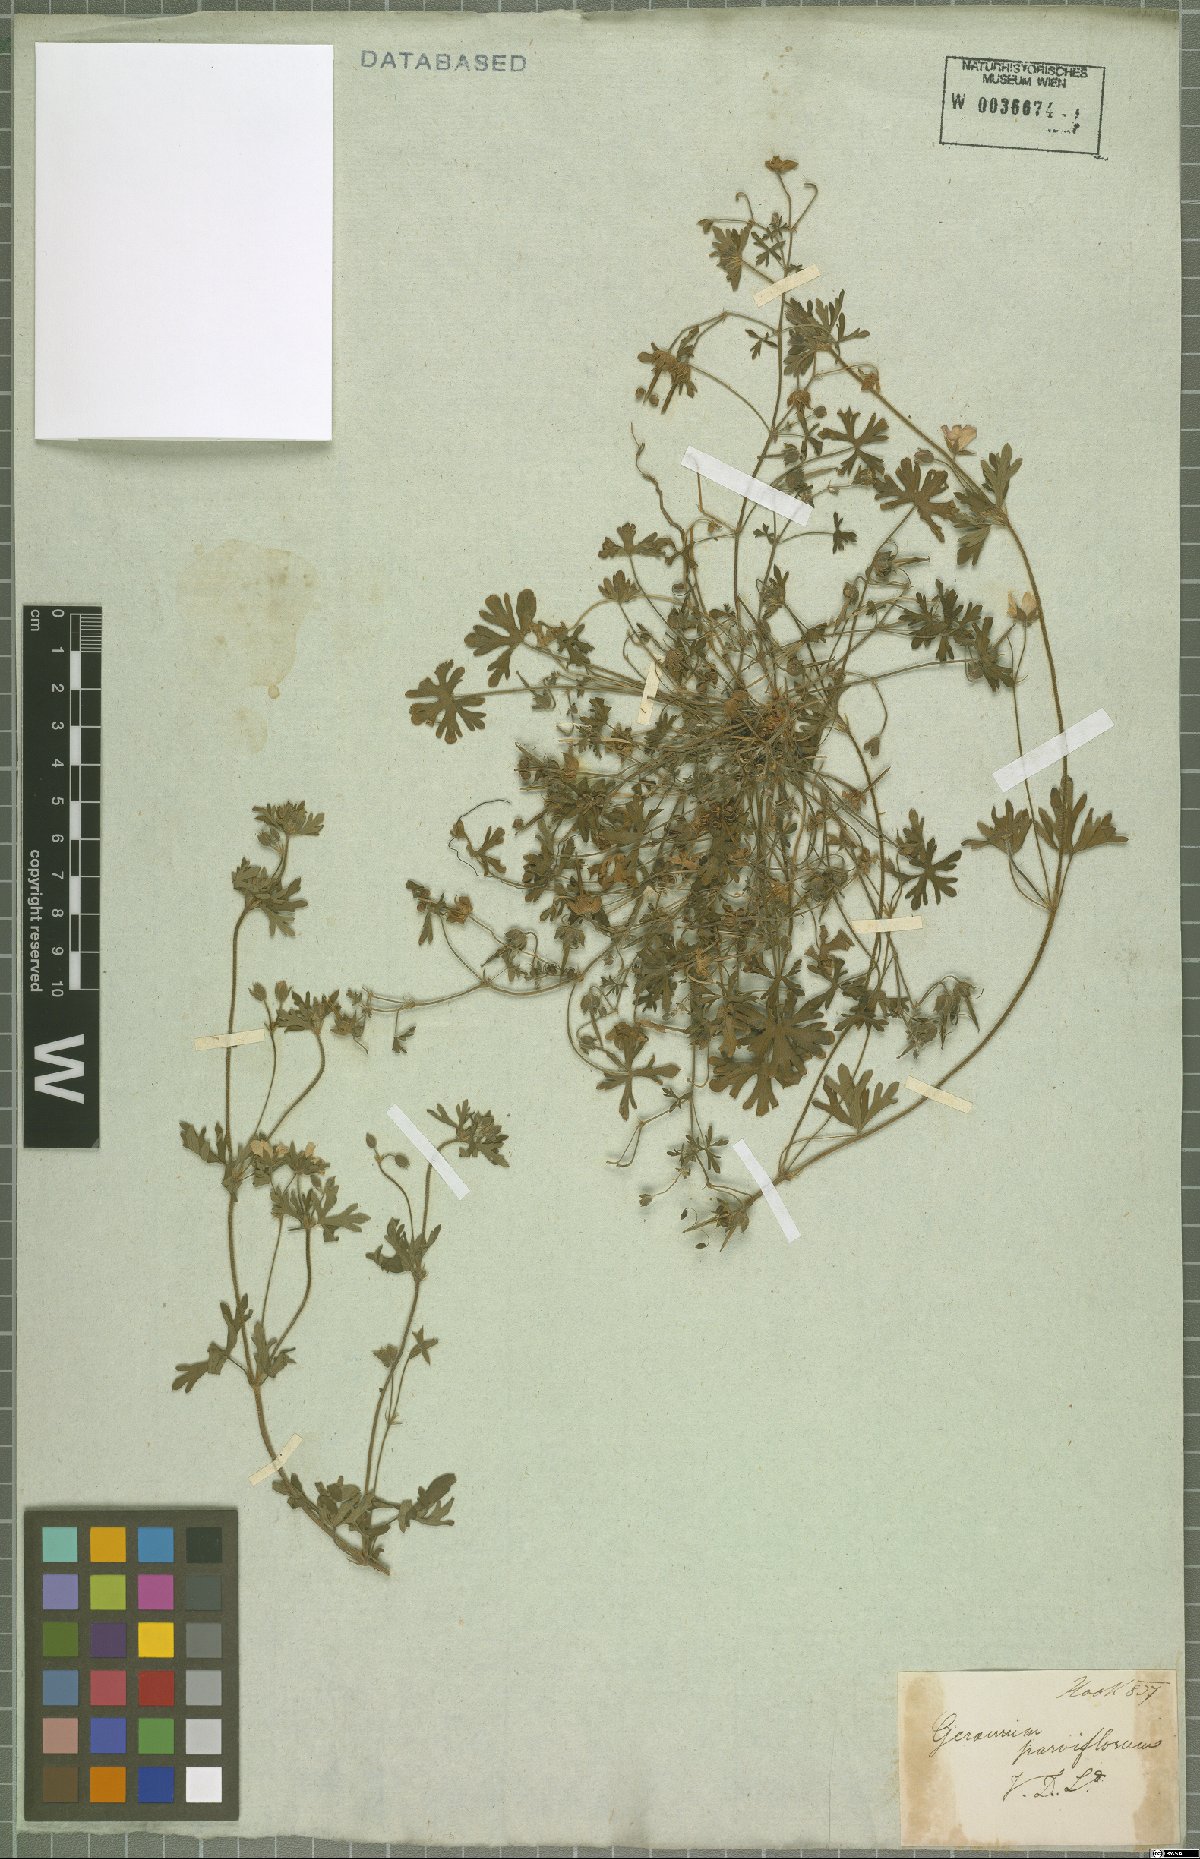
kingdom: Plantae
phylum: Tracheophyta
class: Magnoliopsida
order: Geraniales
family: Geraniaceae
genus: Geranium
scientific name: Geranium retrorsum
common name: New zealand geranium
